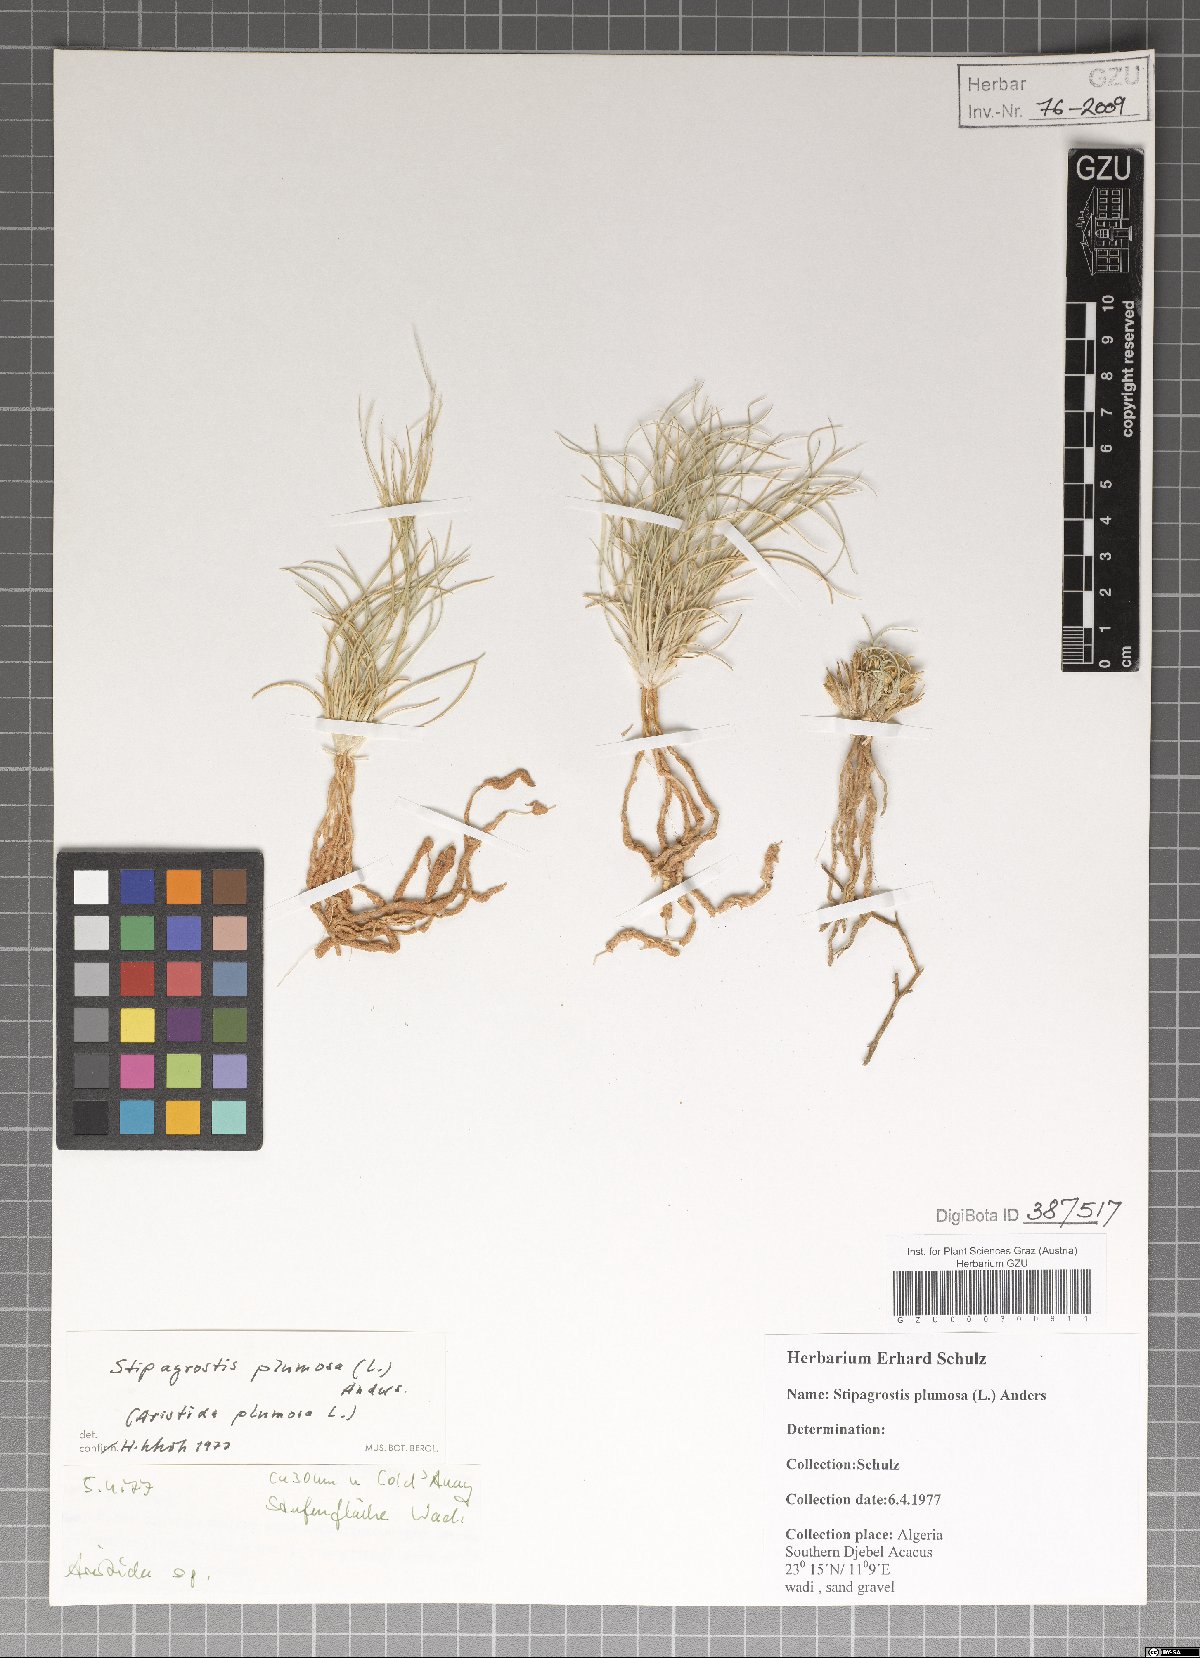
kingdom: Plantae
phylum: Tracheophyta
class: Liliopsida
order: Poales
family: Poaceae
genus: Stipagrostis
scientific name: Stipagrostis plumosa
